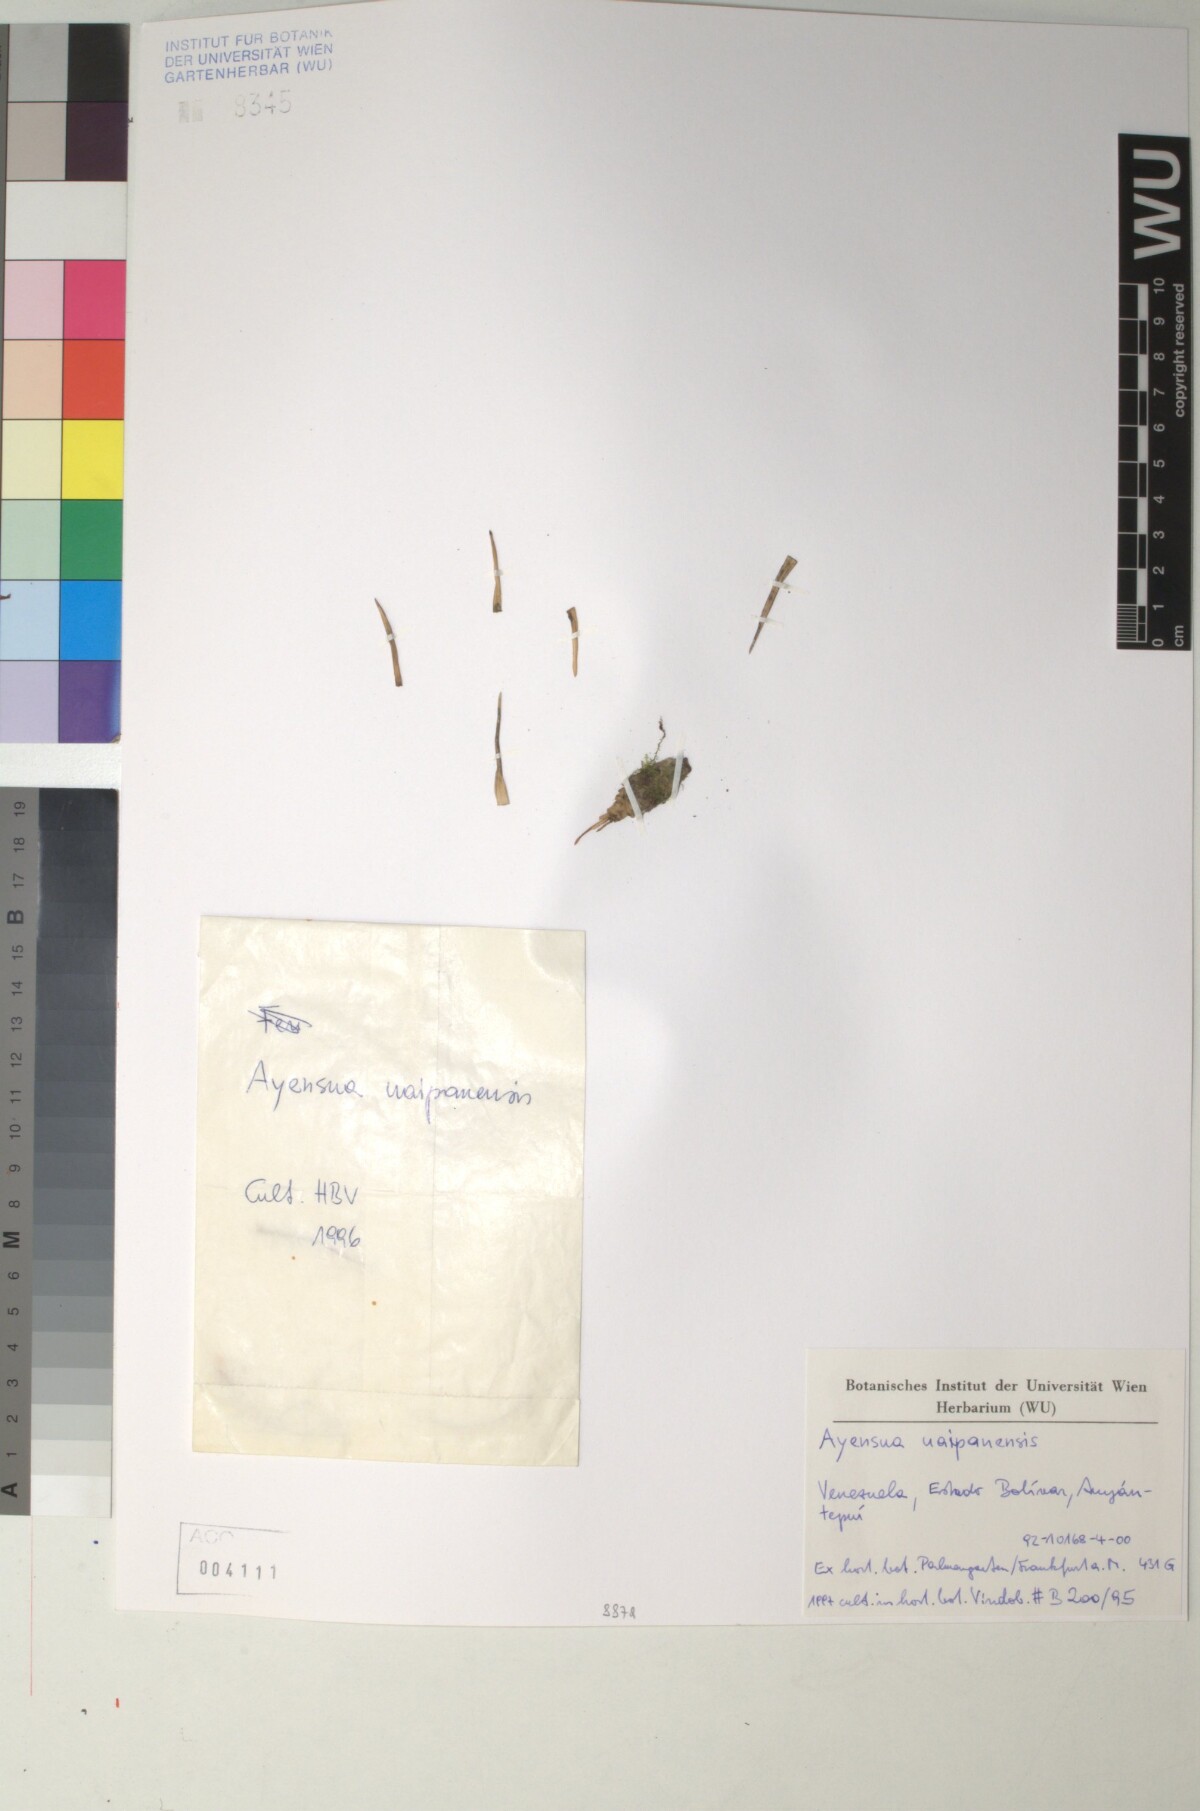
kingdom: Plantae
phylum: Tracheophyta
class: Liliopsida
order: Poales
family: Bromeliaceae
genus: Ayensua
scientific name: Ayensua uaipanensis
